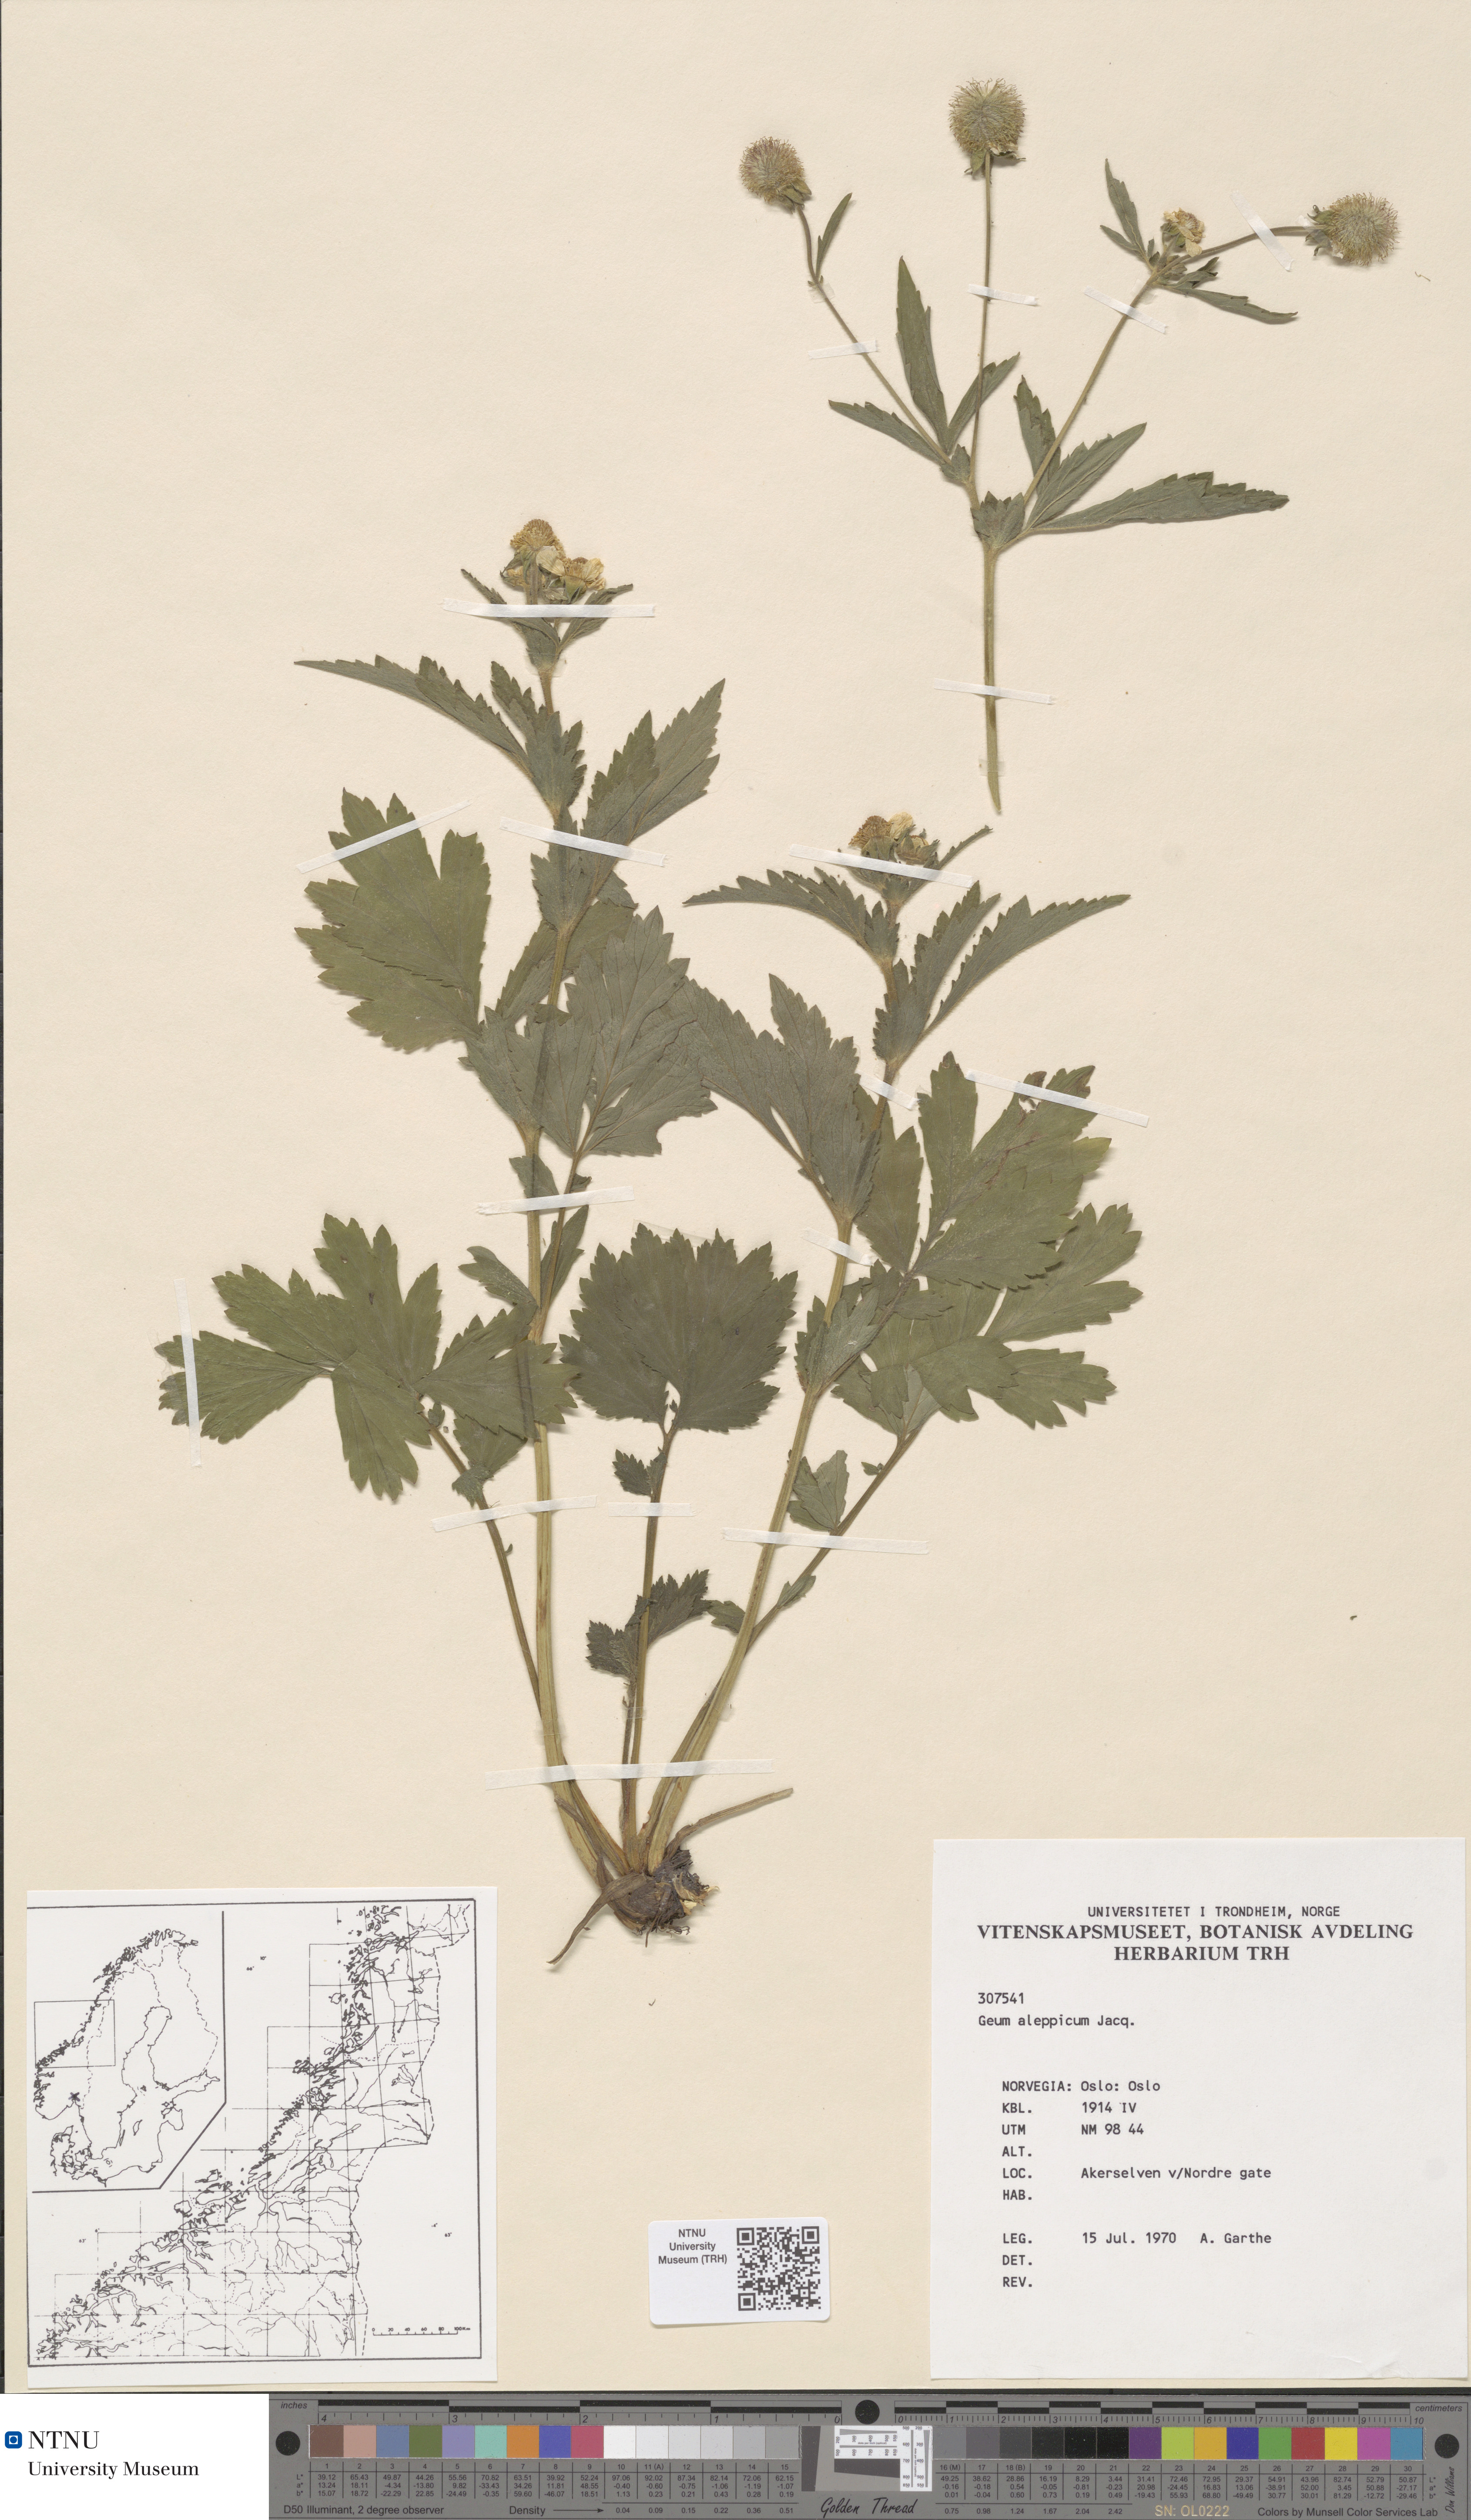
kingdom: Plantae
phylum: Tracheophyta
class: Magnoliopsida
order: Rosales
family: Rosaceae
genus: Geum
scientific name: Geum aleppicum
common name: Yellow avens
